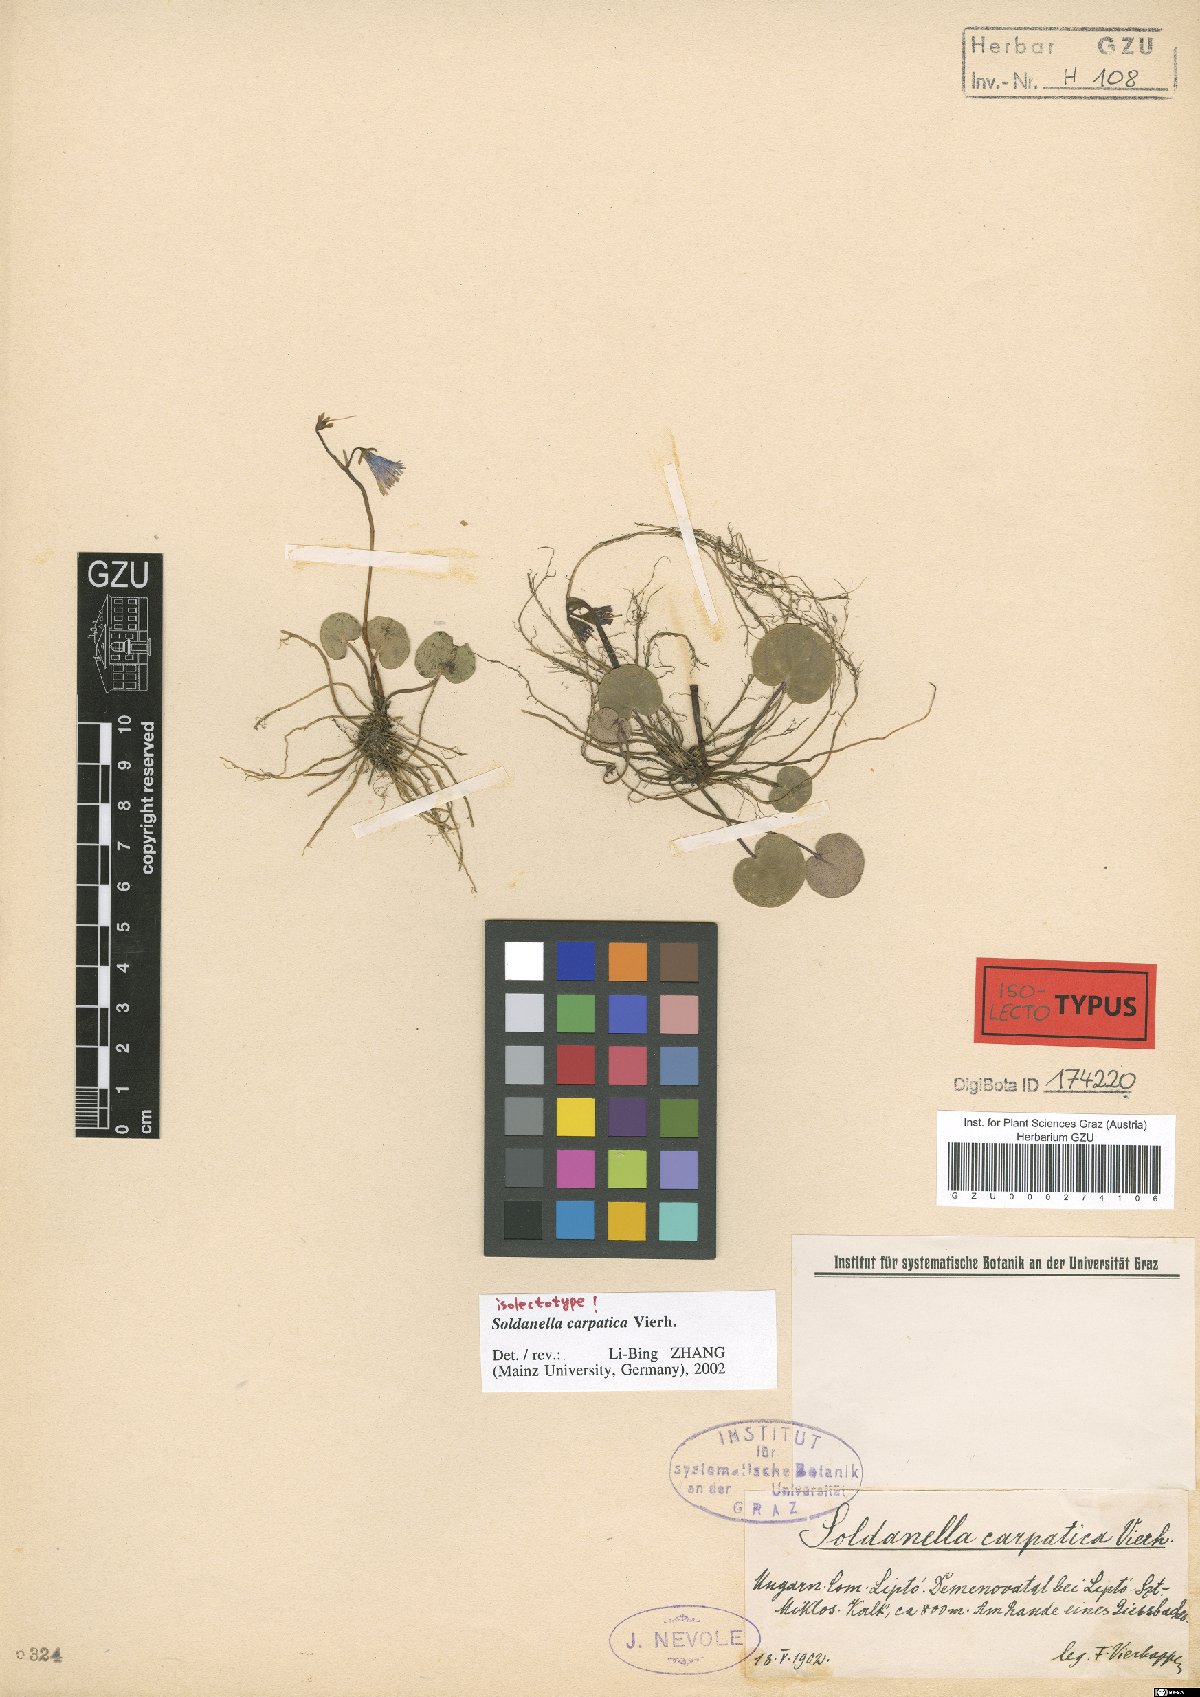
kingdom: Plantae
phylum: Tracheophyta
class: Magnoliopsida
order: Ericales
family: Primulaceae
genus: Soldanella
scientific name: Soldanella carpatica
